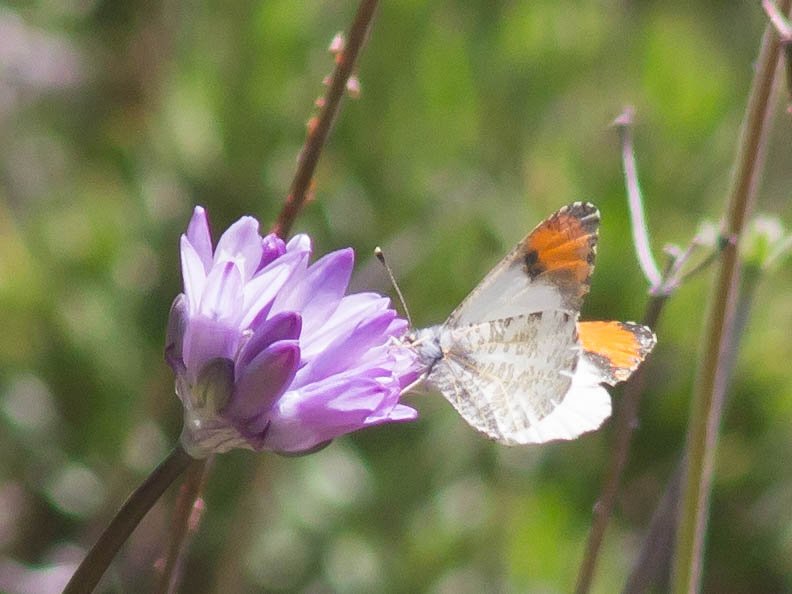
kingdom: Animalia
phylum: Arthropoda
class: Insecta
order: Lepidoptera
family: Pieridae
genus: Anthocharis
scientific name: Anthocharis sara
